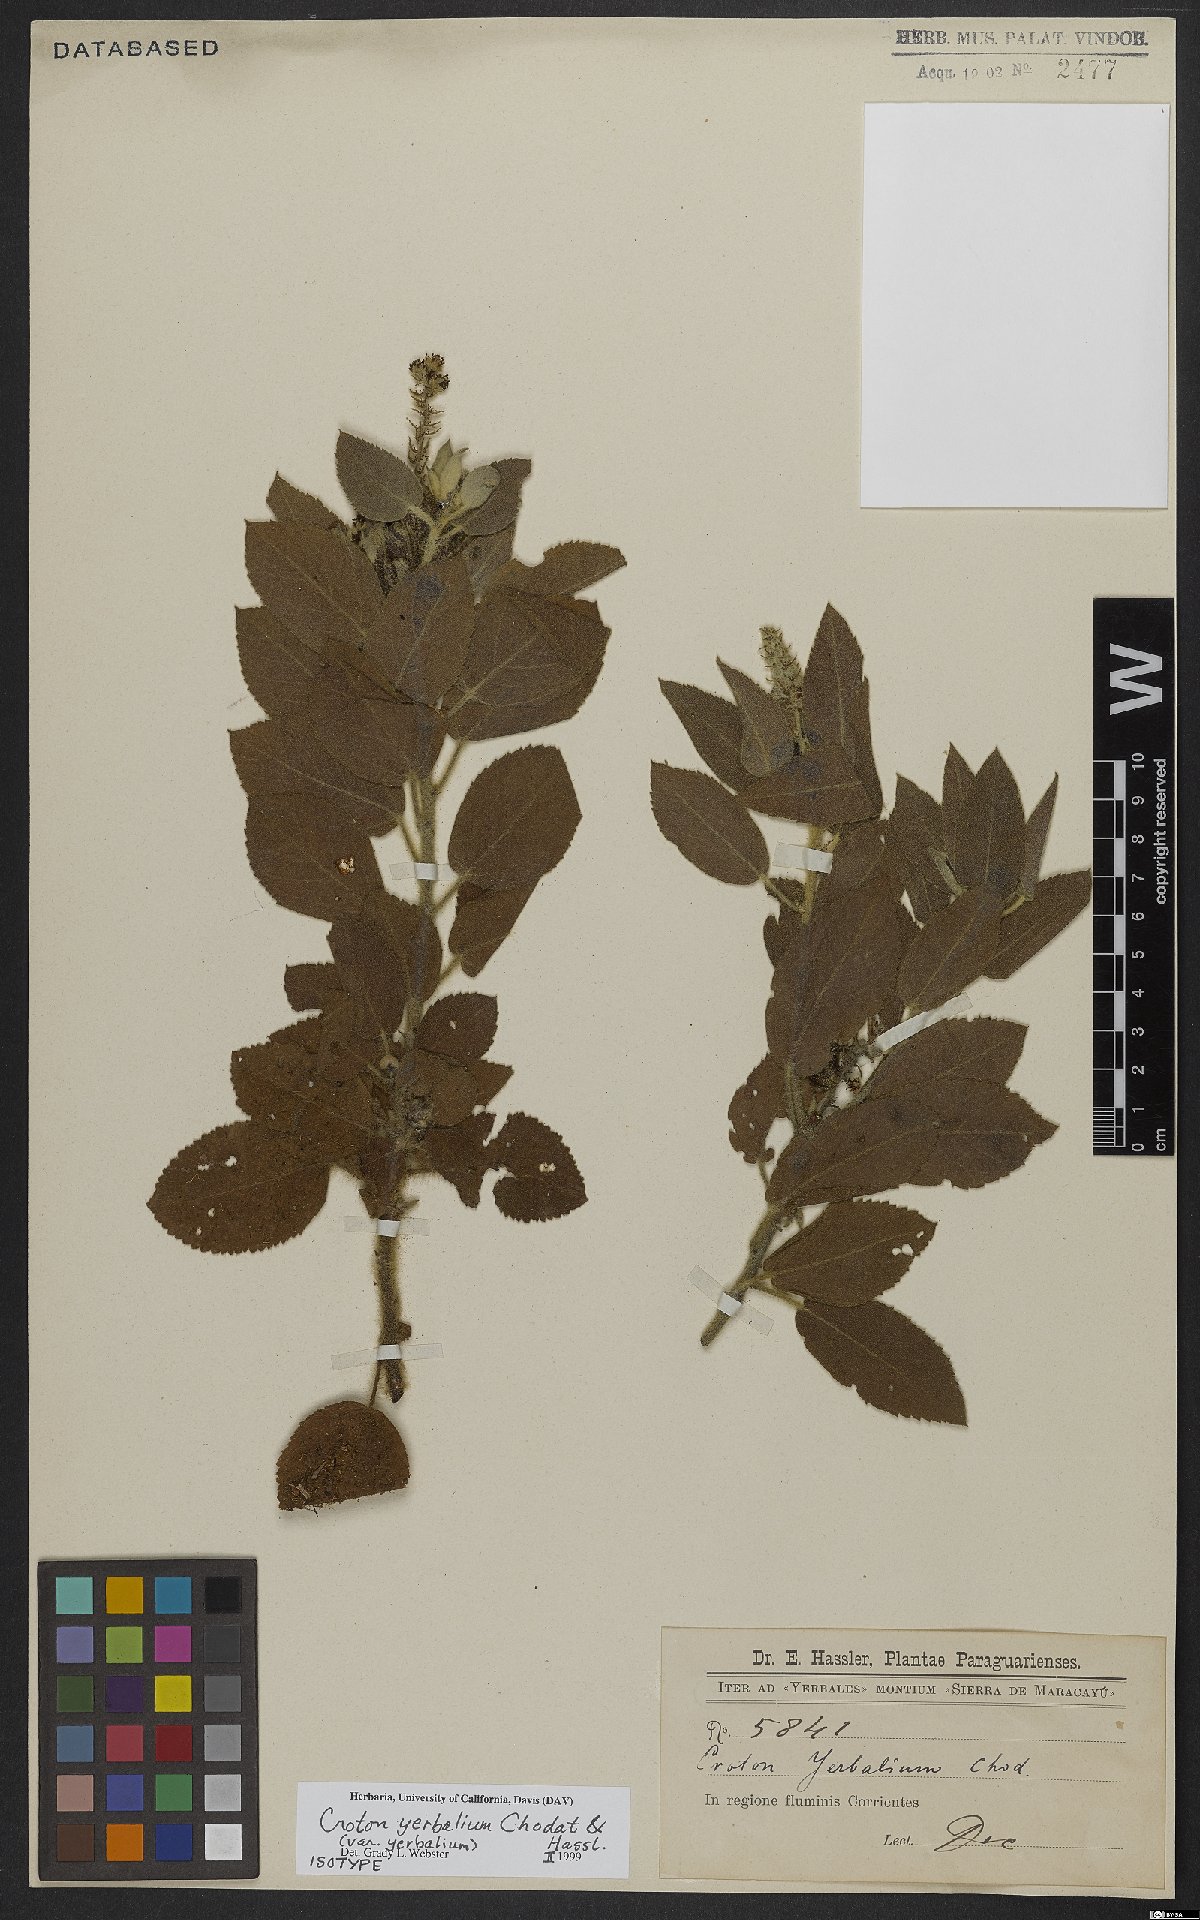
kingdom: Plantae
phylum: Tracheophyta
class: Magnoliopsida
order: Malpighiales
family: Euphorbiaceae
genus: Croton
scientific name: Croton yerbalium
